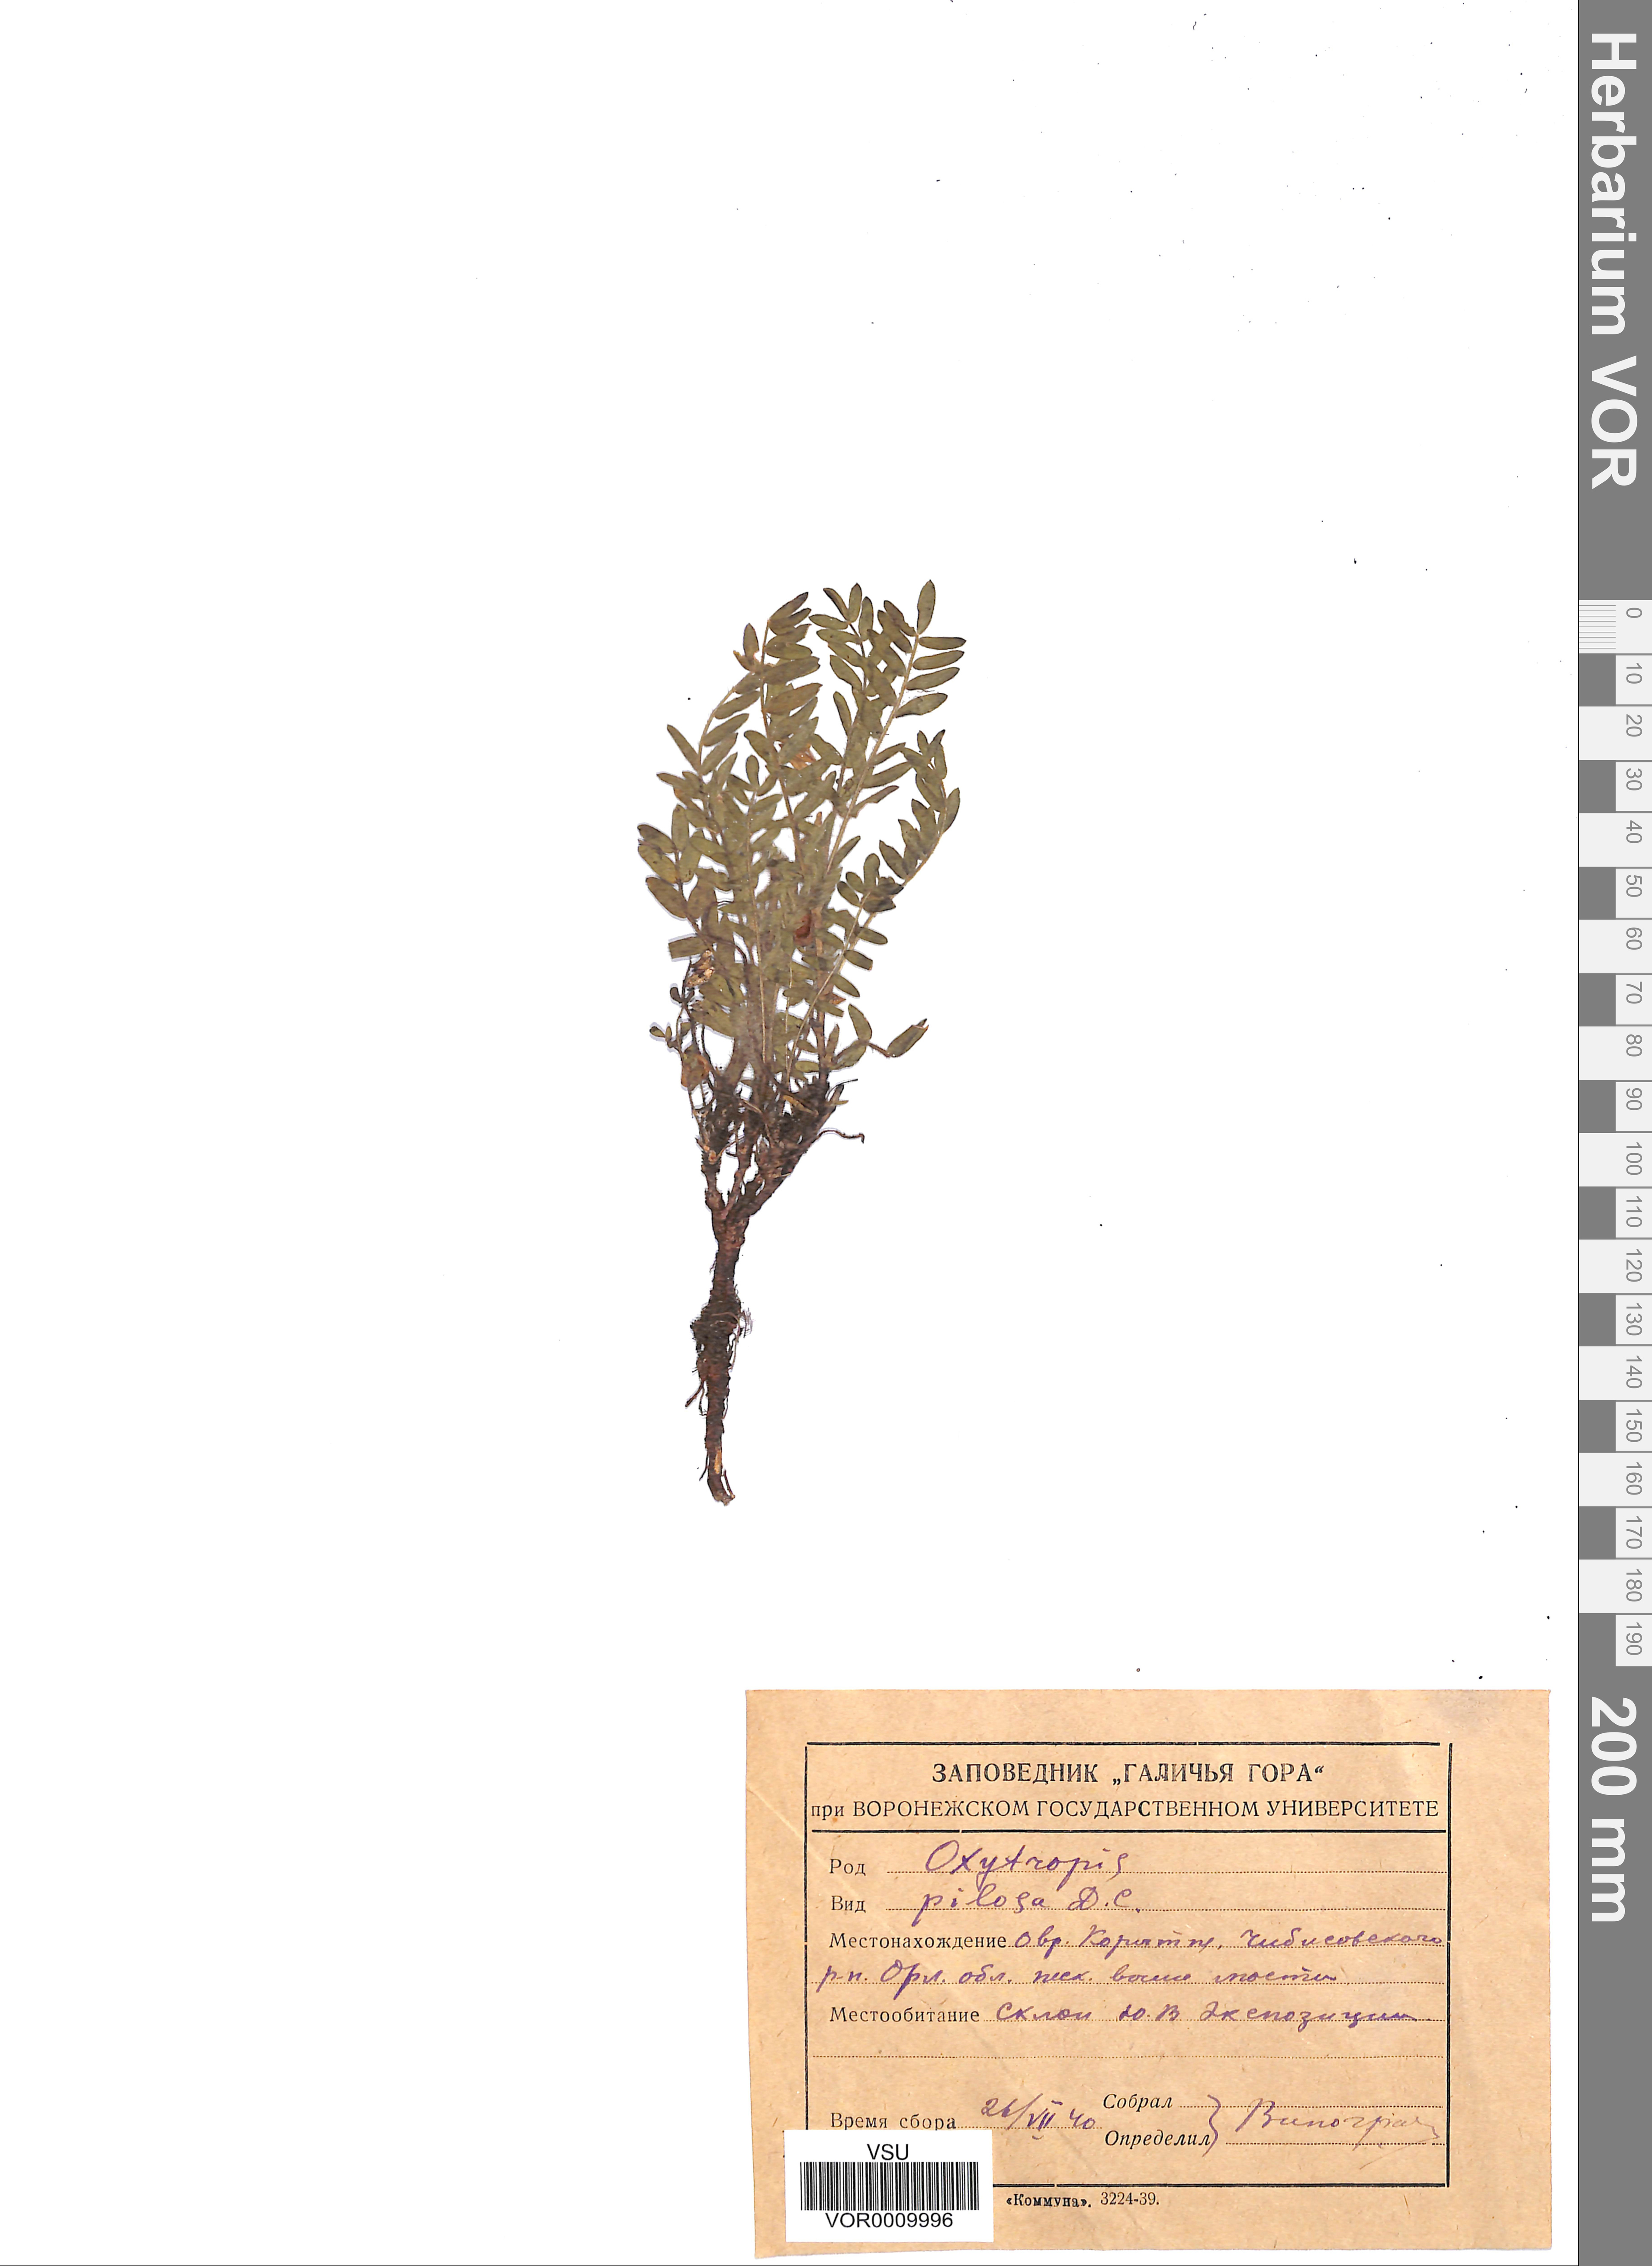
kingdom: Plantae
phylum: Tracheophyta
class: Magnoliopsida
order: Fabales
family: Fabaceae
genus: Oxytropis
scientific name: Oxytropis pilosa
